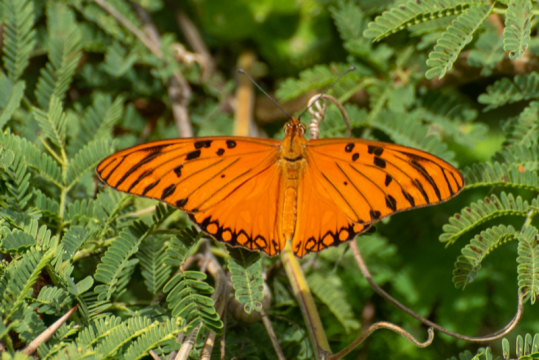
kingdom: Animalia
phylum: Arthropoda
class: Insecta
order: Lepidoptera
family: Nymphalidae
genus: Dione
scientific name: Dione vanillae
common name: Gulf Fritillary
